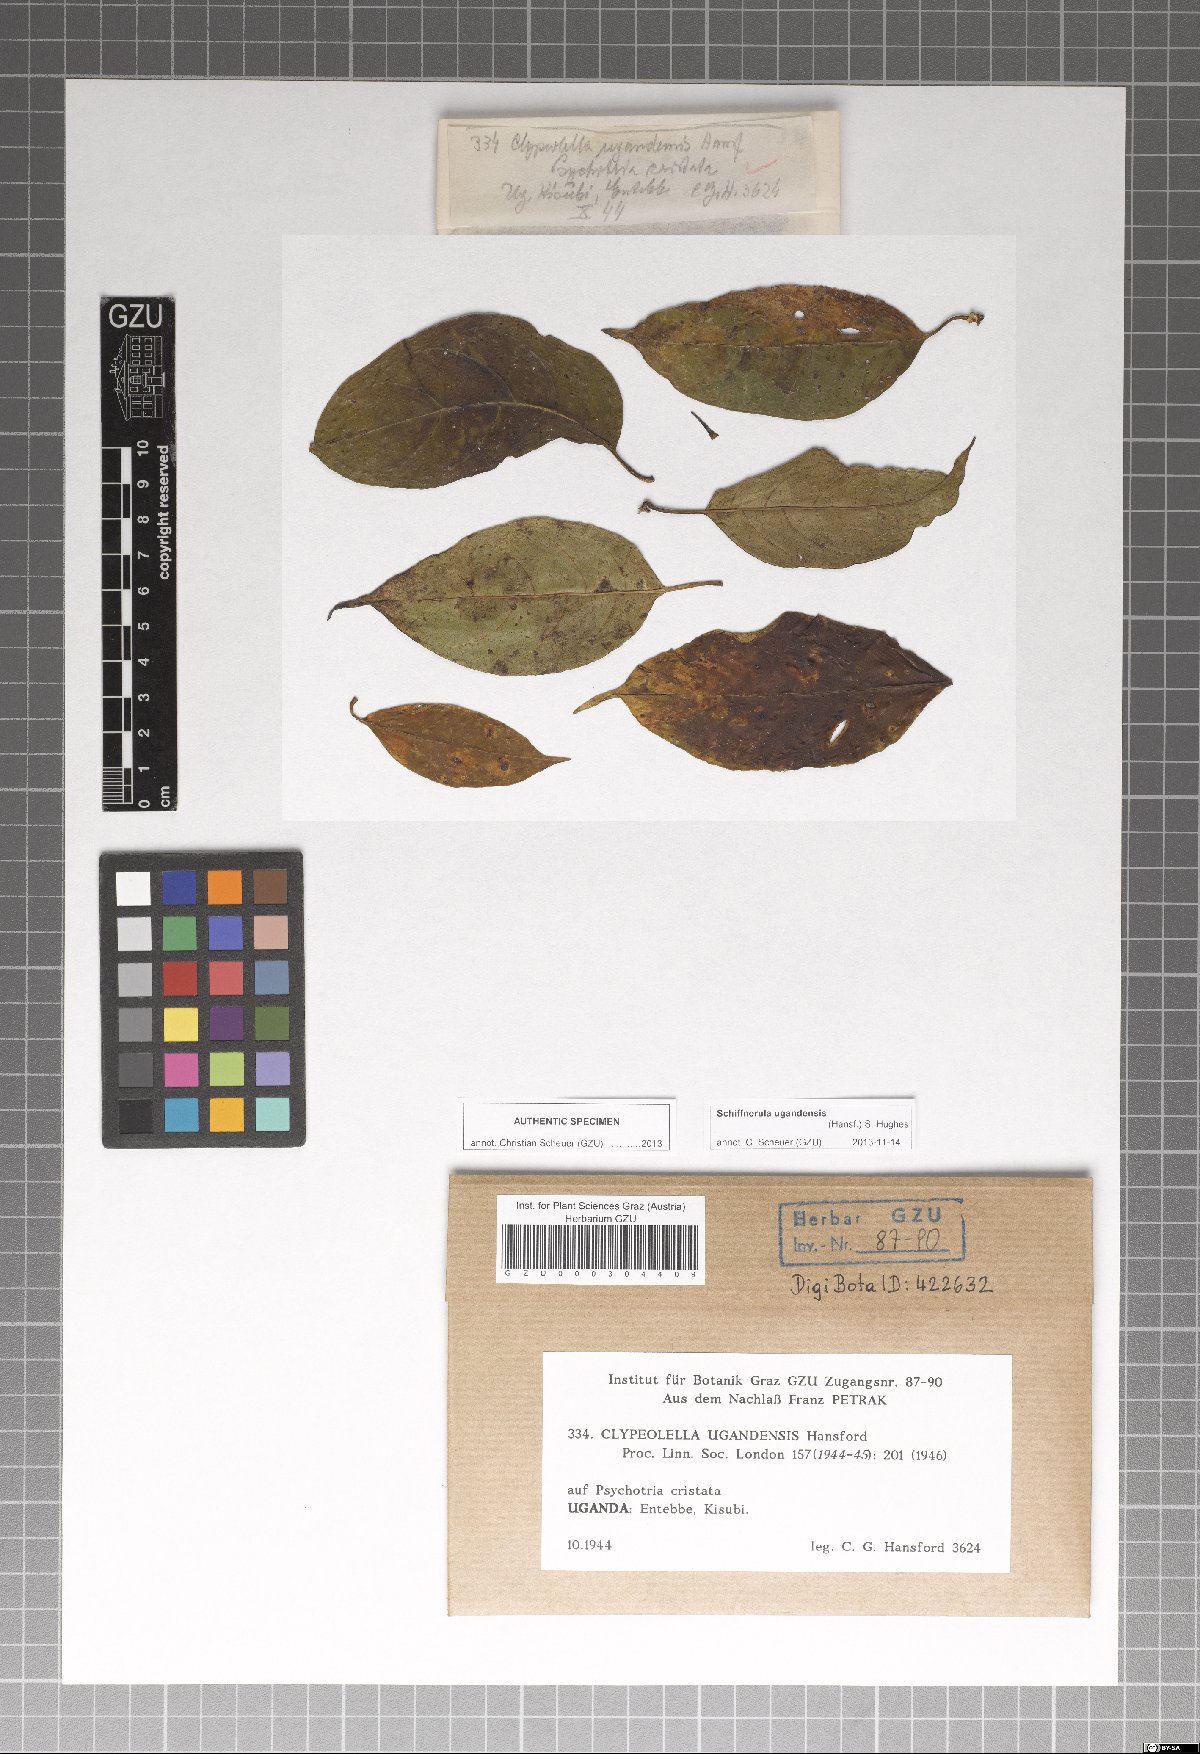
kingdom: Fungi
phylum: Ascomycota
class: Dothideomycetes
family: Englerulaceae
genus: Schiffnerula
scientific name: Schiffnerula ugandensis
